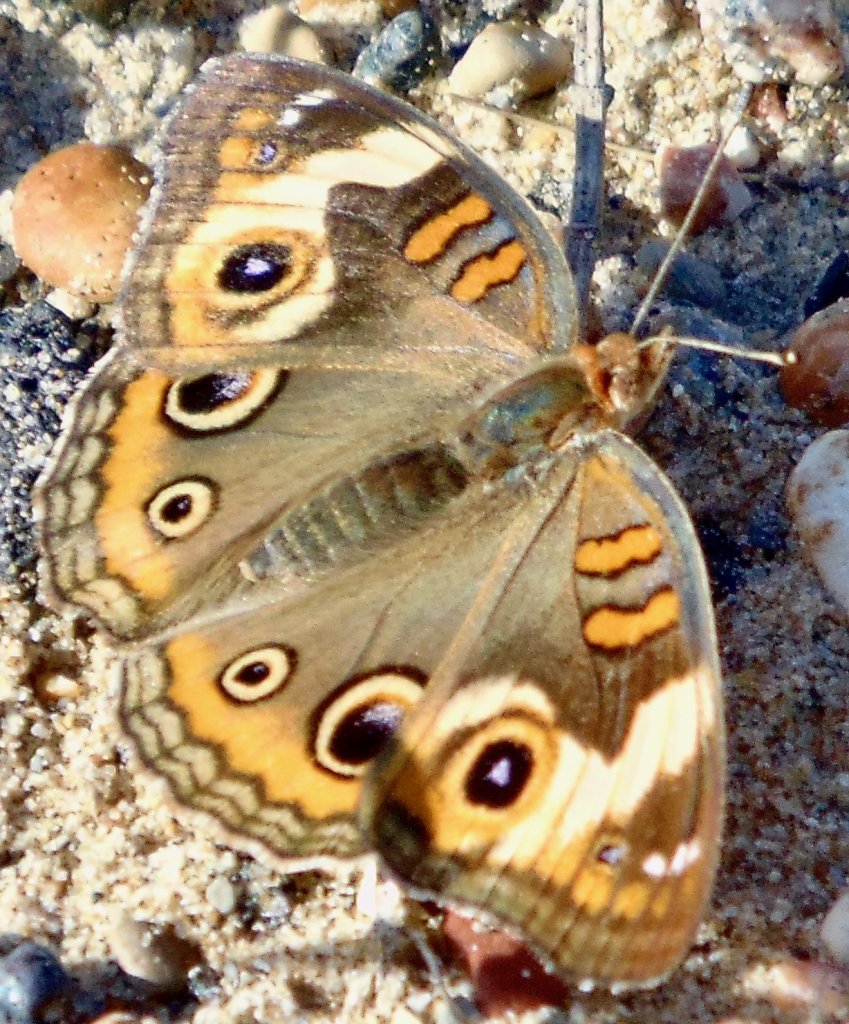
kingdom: Animalia
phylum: Arthropoda
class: Insecta
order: Lepidoptera
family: Nymphalidae
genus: Junonia
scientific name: Junonia coenia
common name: Common Buckeye
